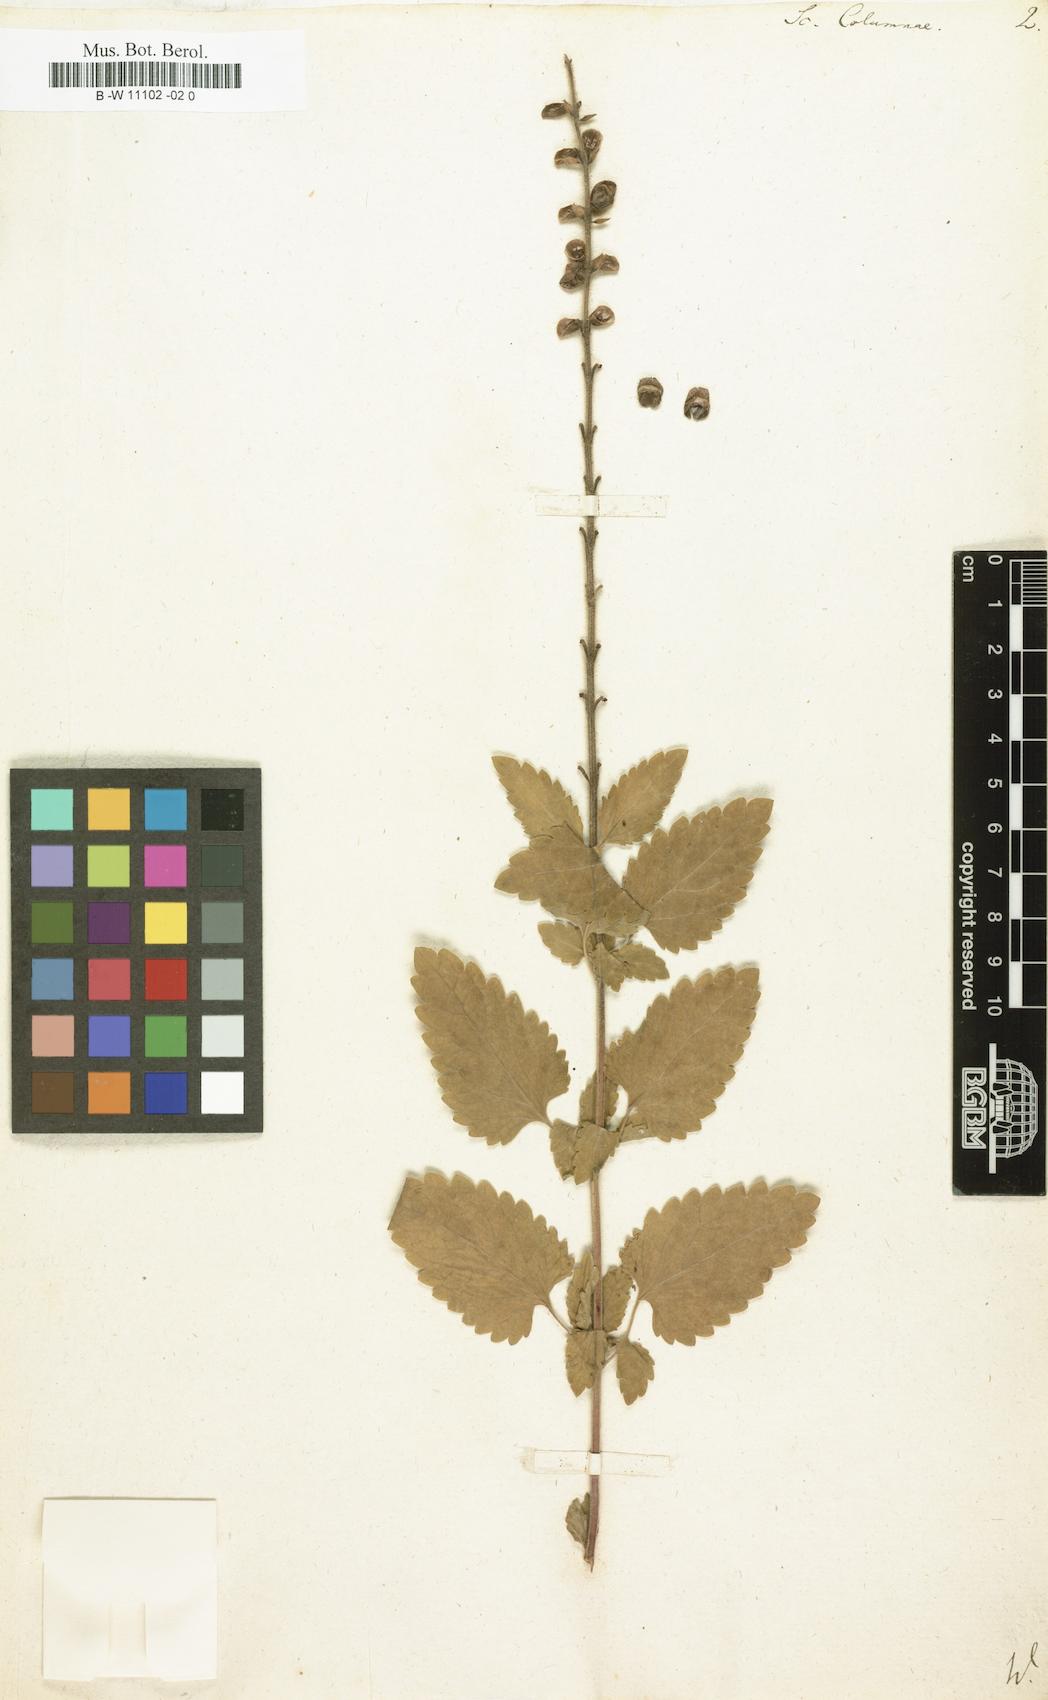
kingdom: Plantae
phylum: Tracheophyta
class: Magnoliopsida
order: Lamiales
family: Lamiaceae
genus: Scutellaria
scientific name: Scutellaria columnae
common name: Large skullcap
